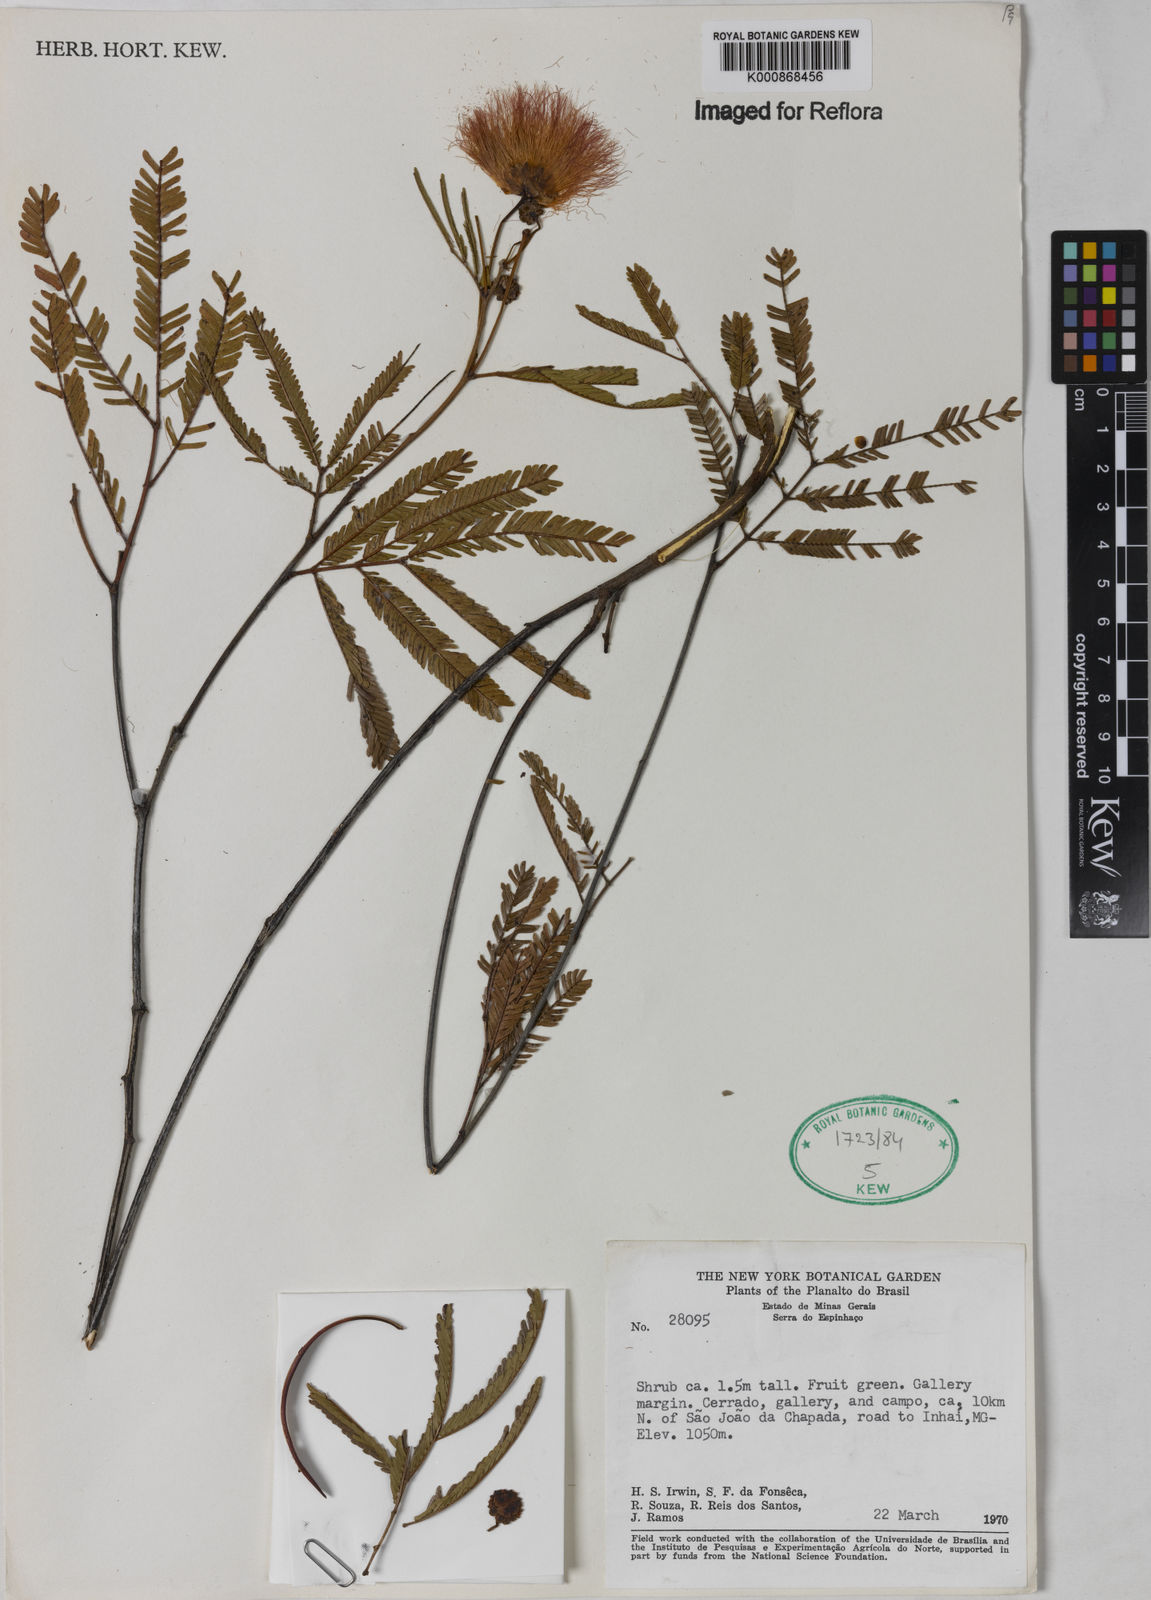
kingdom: Plantae
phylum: Tracheophyta
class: Magnoliopsida
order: Fabales
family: Fabaceae
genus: Calliandra
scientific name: Calliandra
